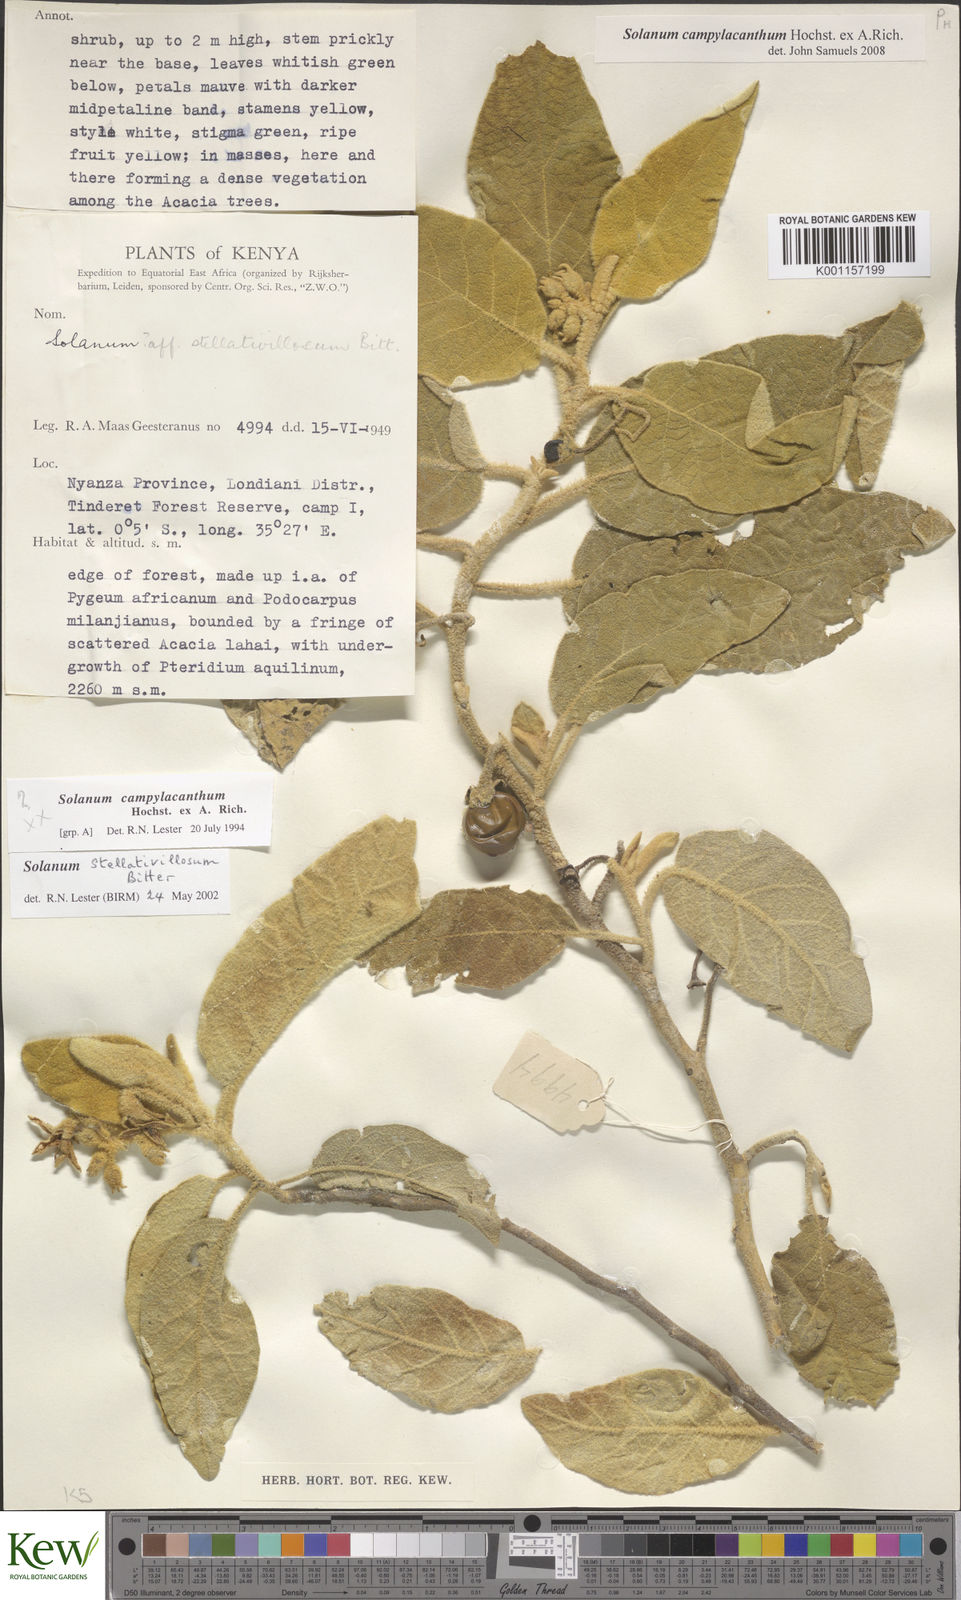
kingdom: Plantae
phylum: Tracheophyta
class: Magnoliopsida
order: Solanales
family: Solanaceae
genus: Solanum
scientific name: Solanum campylacanthum
